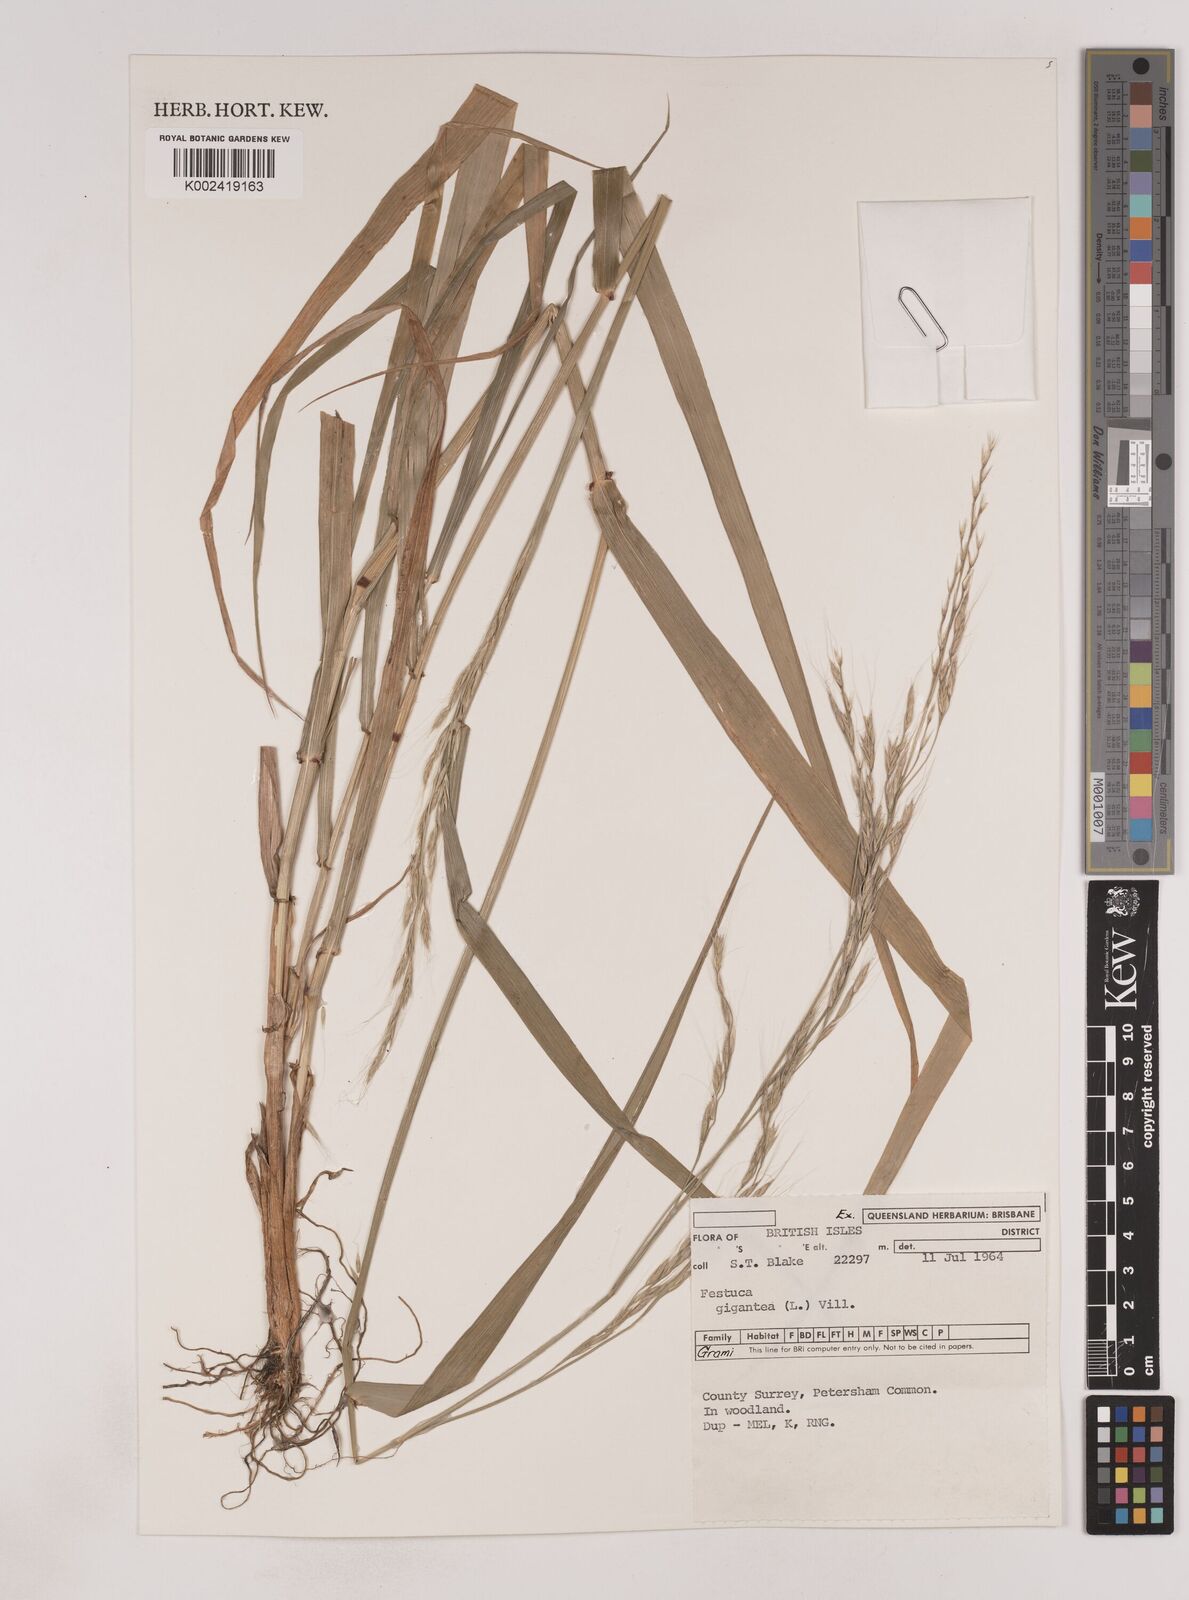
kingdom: Plantae
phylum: Tracheophyta
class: Liliopsida
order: Poales
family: Poaceae
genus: Lolium
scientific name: Lolium giganteum
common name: Giant fescue
